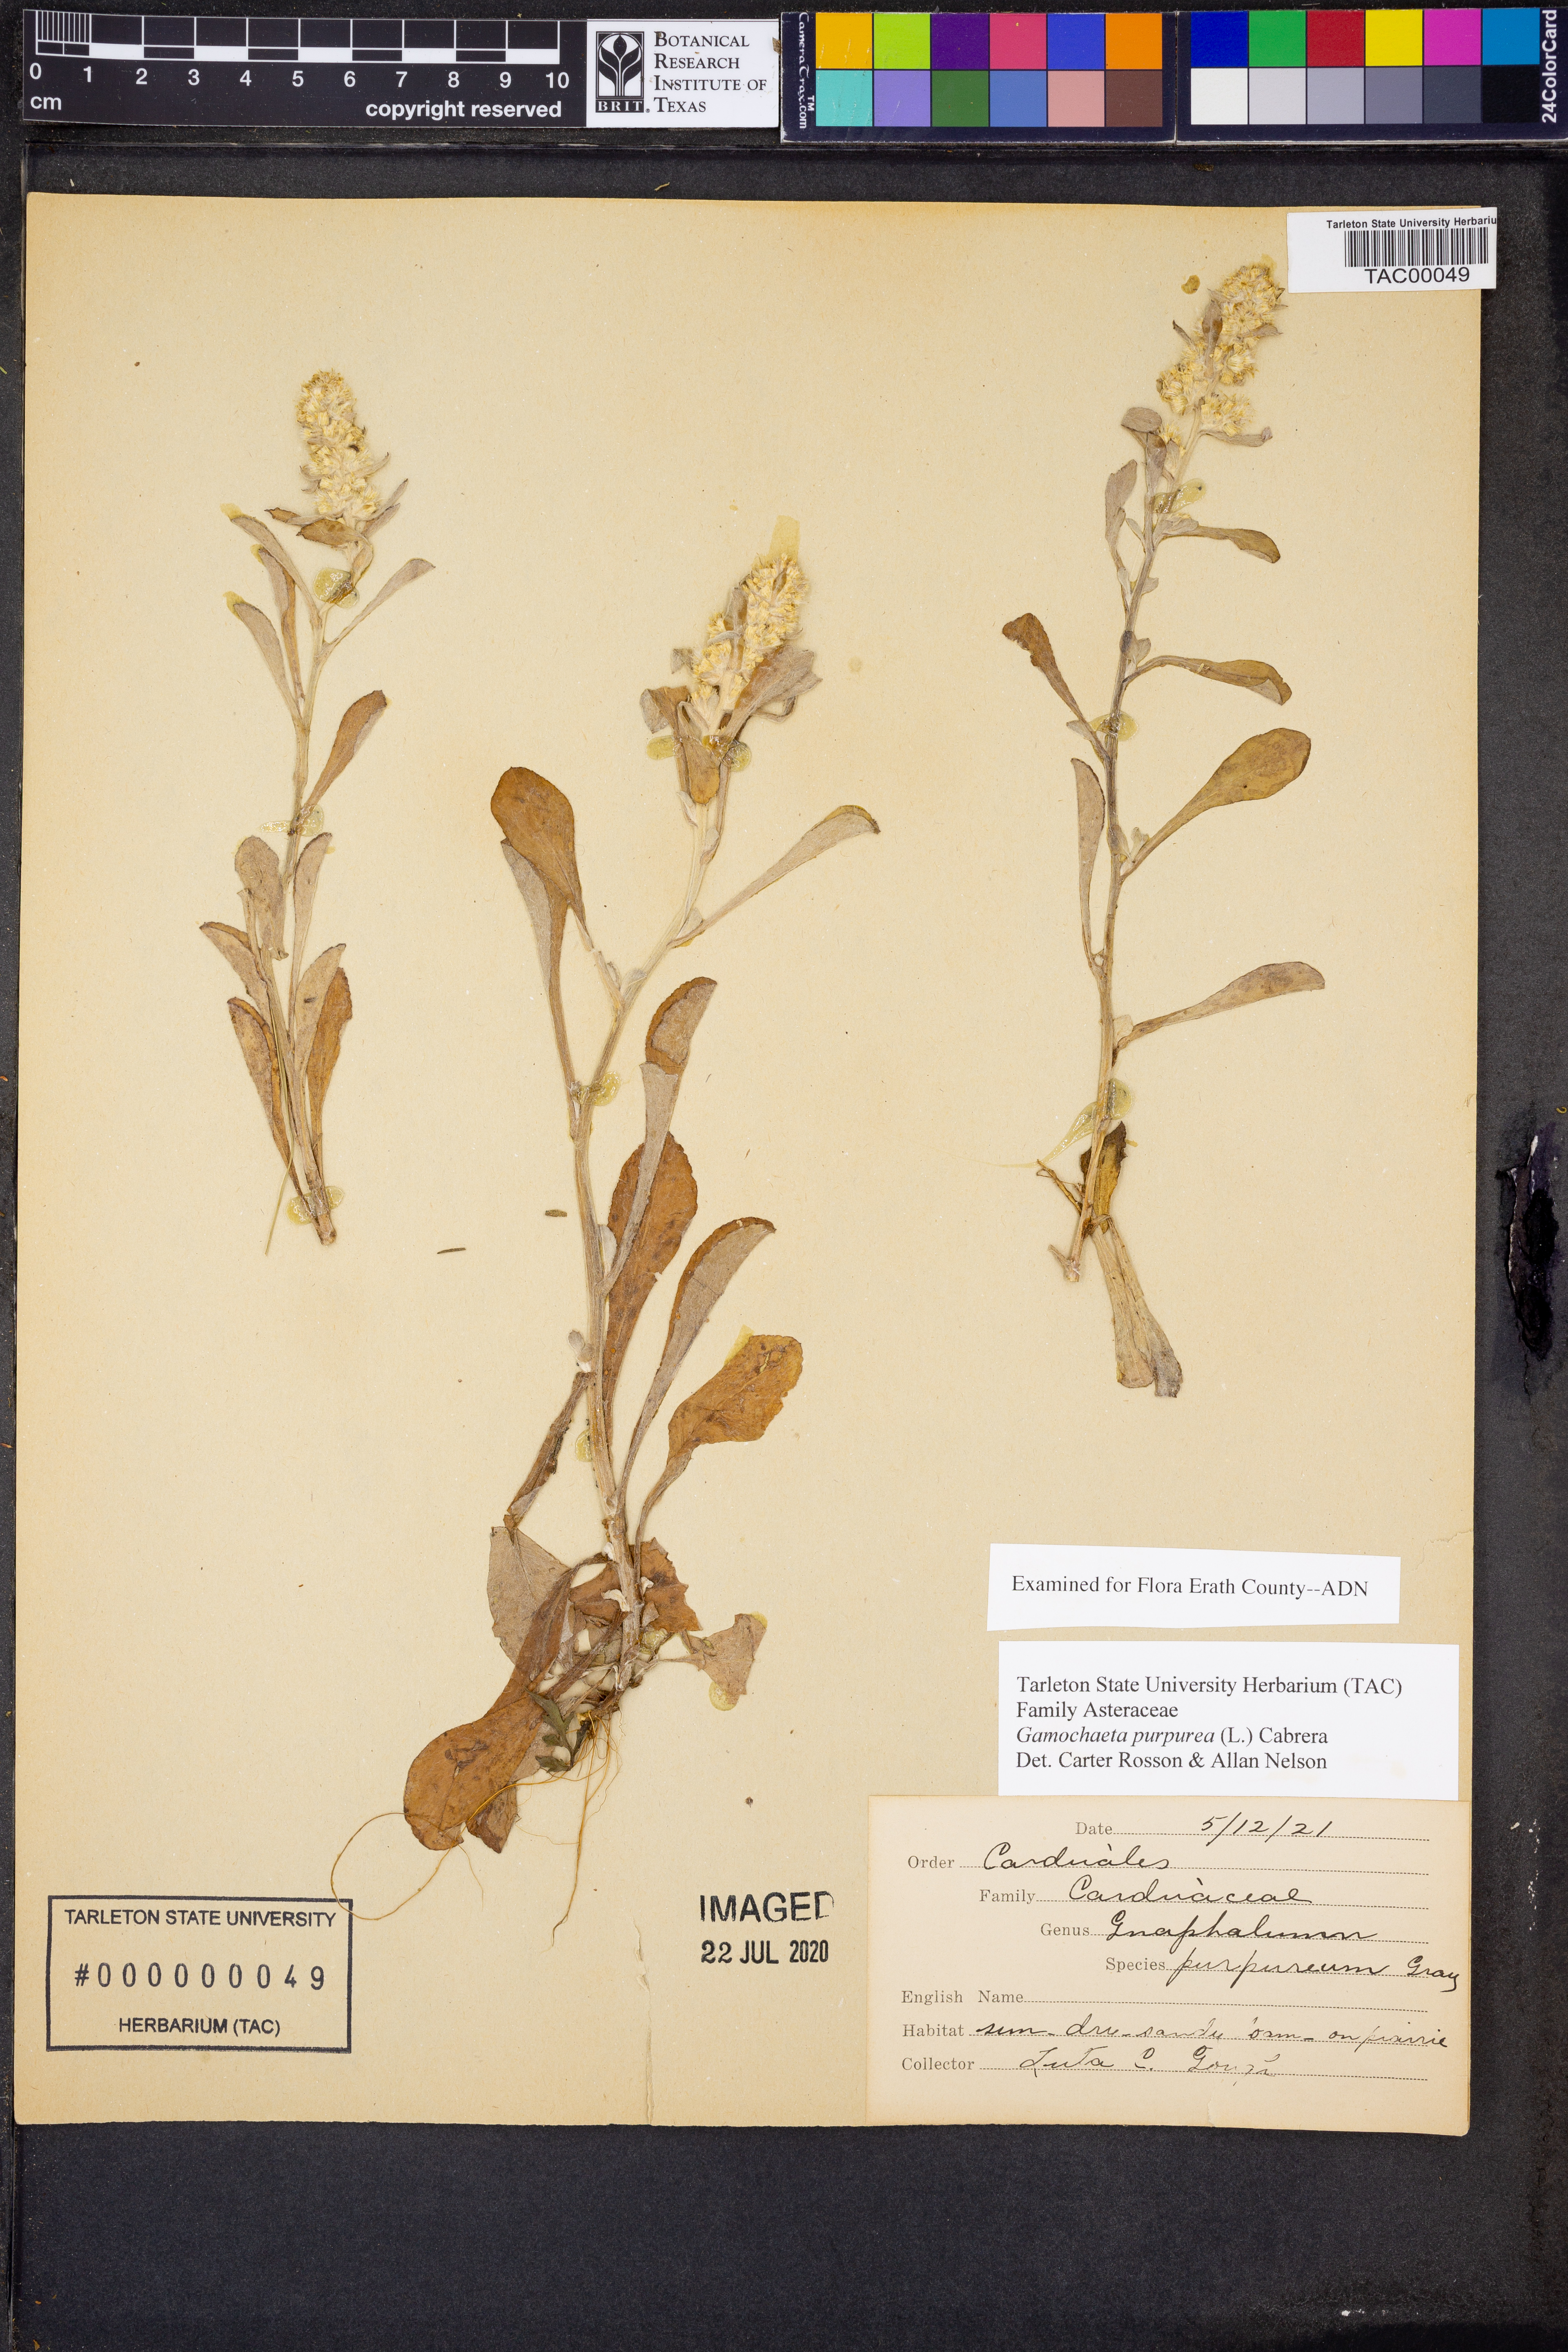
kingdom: Plantae
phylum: Tracheophyta
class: Magnoliopsida
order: Asterales
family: Asteraceae
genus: Gamochaeta
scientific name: Gamochaeta purpurea
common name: Purple cudweed
